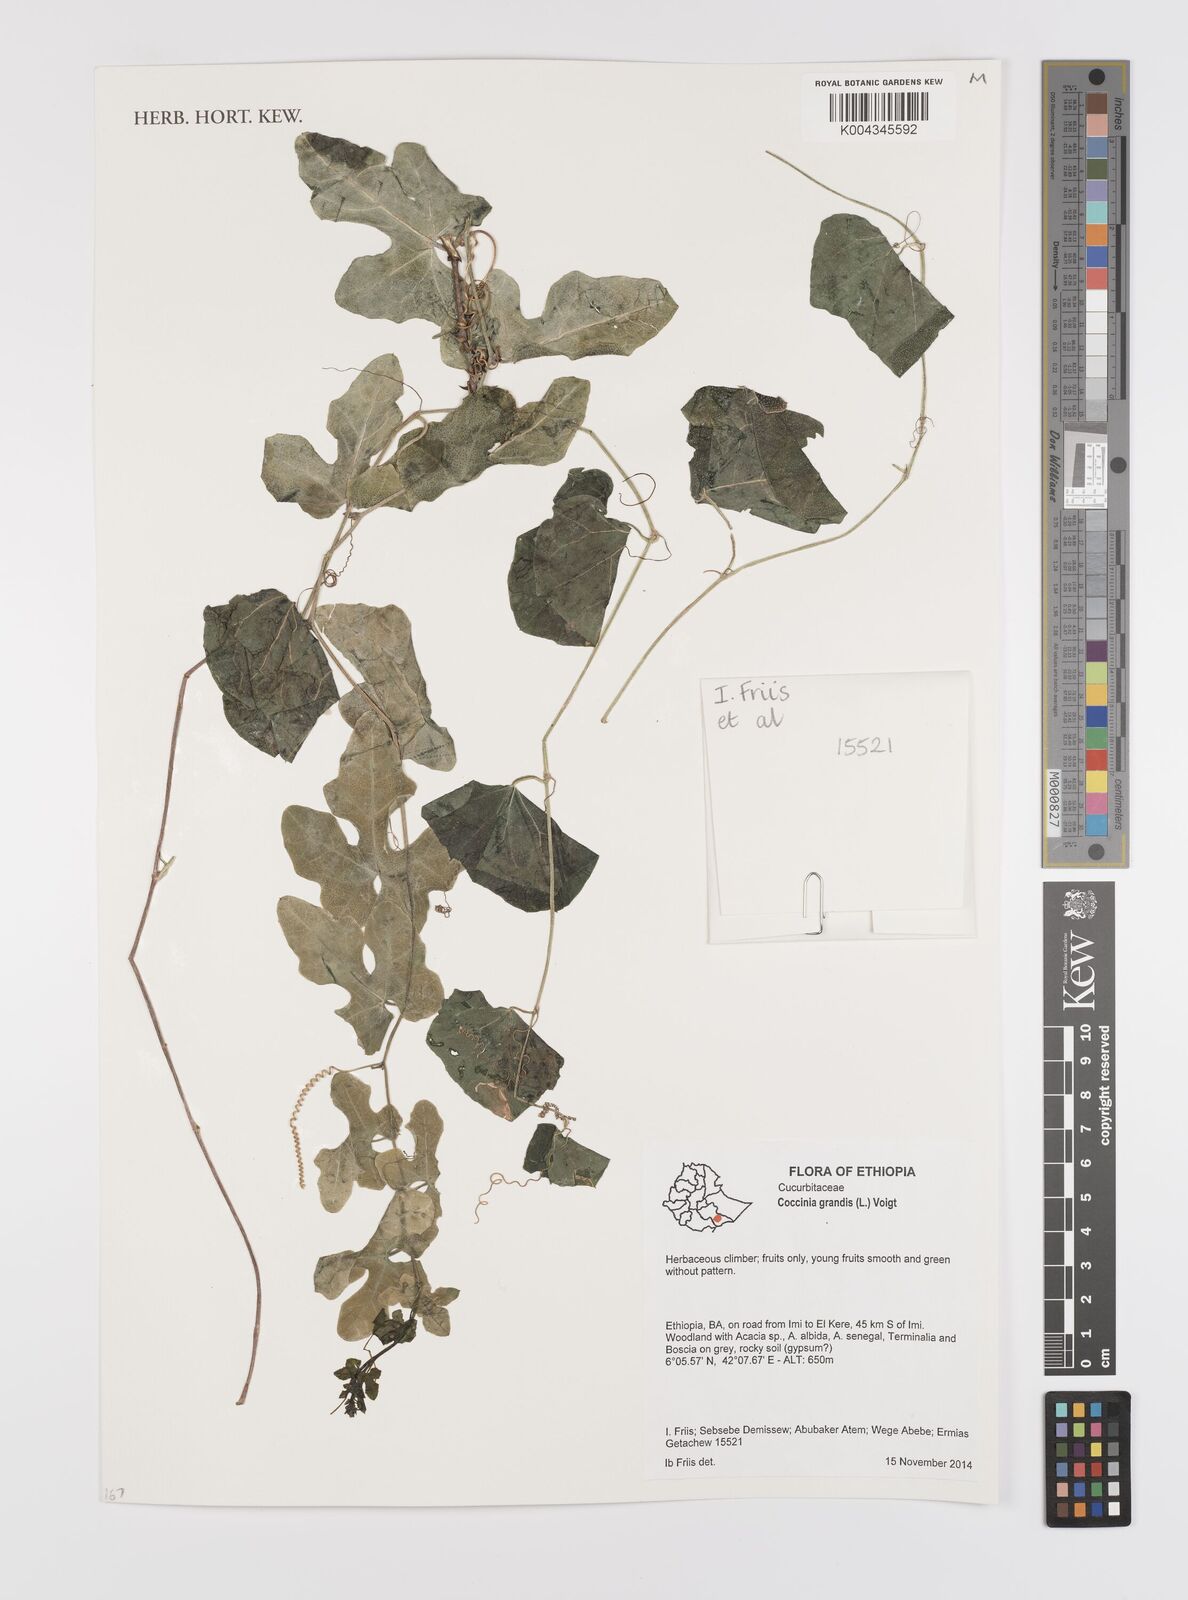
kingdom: Plantae
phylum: Tracheophyta
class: Magnoliopsida
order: Cucurbitales
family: Cucurbitaceae
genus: Coccinia
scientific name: Coccinia grandis
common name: Ivy gourd
